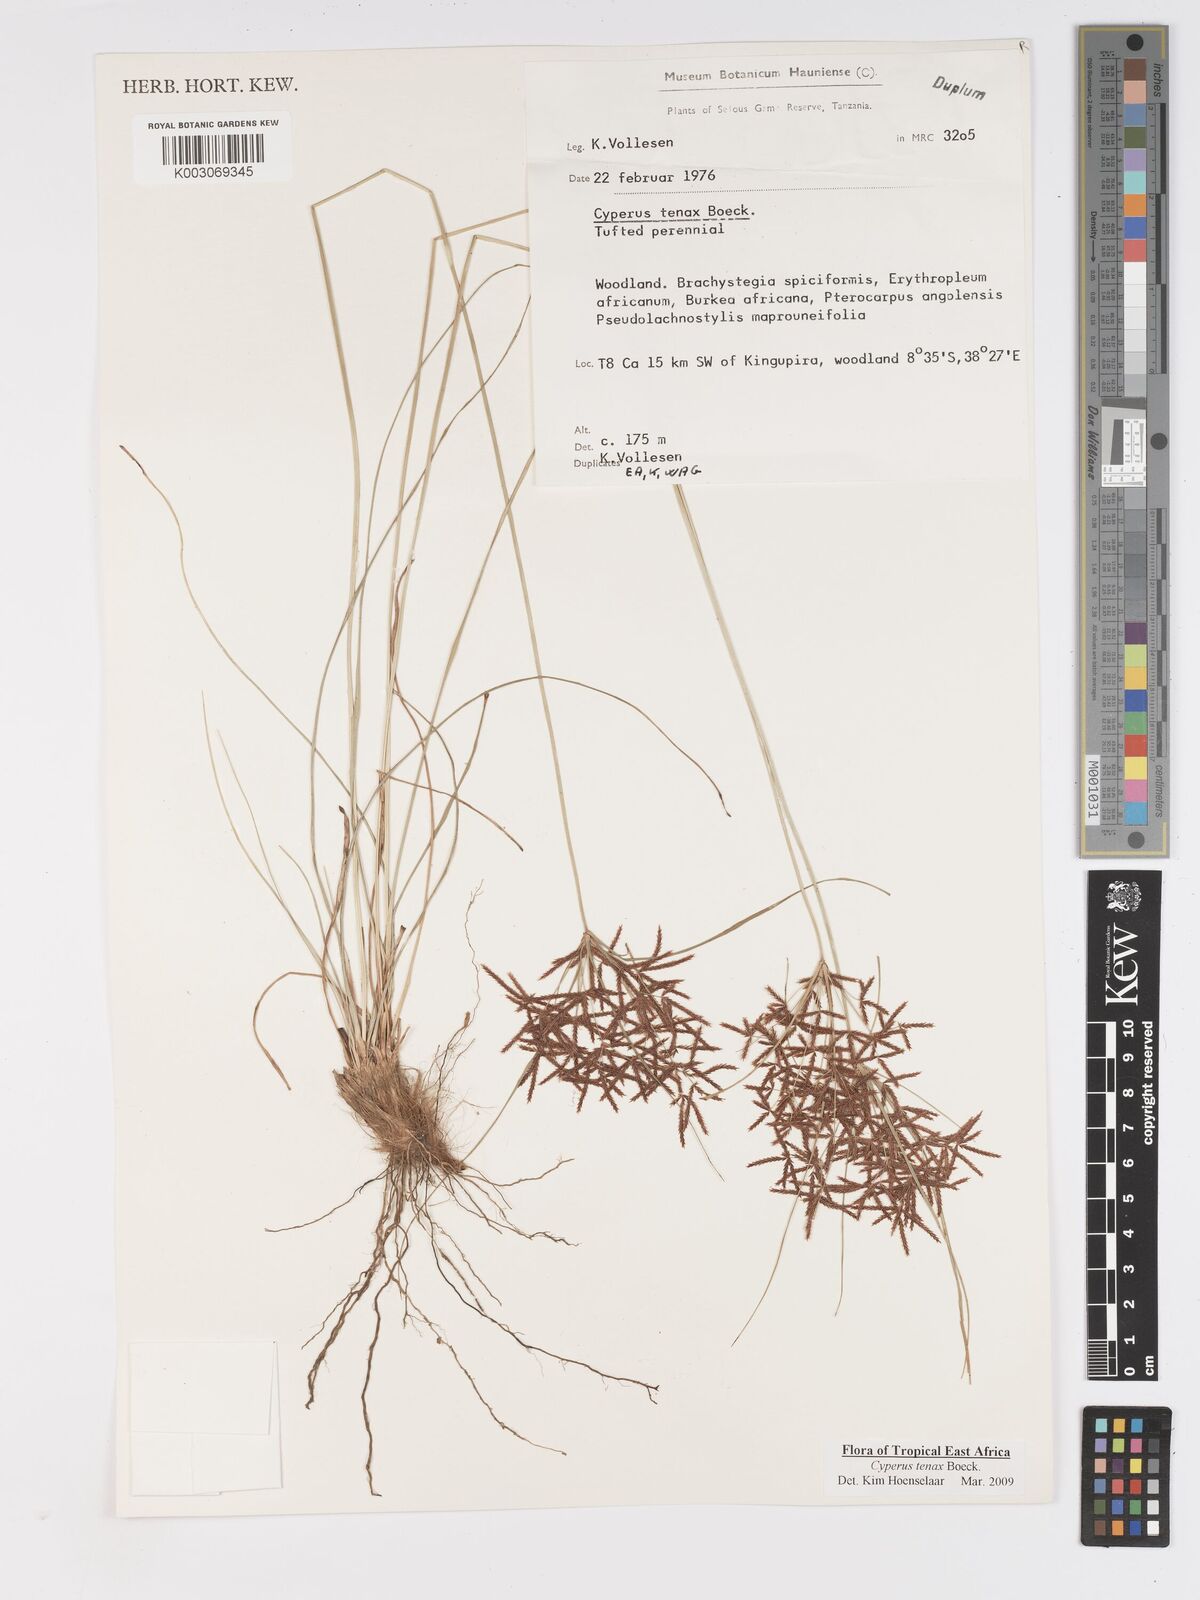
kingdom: Plantae
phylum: Tracheophyta
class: Liliopsida
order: Poales
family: Cyperaceae
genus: Cyperus
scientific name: Cyperus tenax
